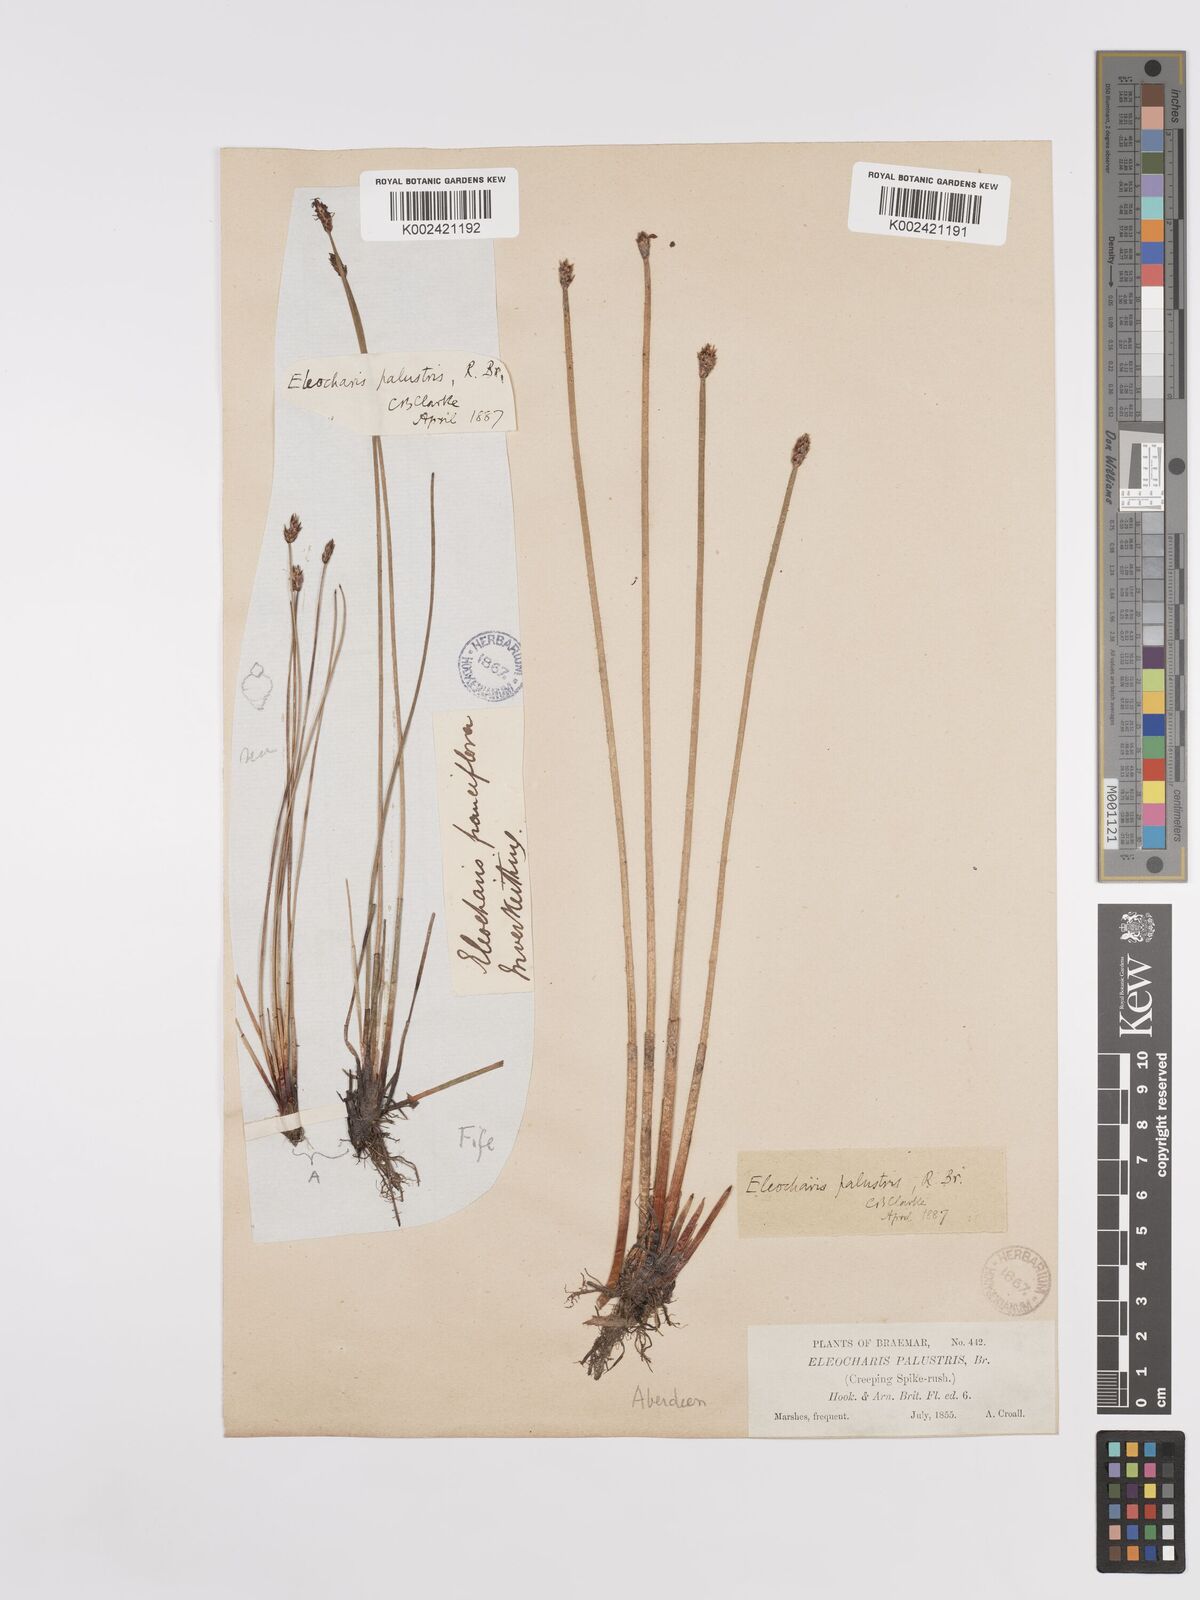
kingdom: Plantae
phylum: Tracheophyta
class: Liliopsida
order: Poales
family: Cyperaceae
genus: Eleocharis
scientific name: Eleocharis palustris
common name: Common spike-rush
